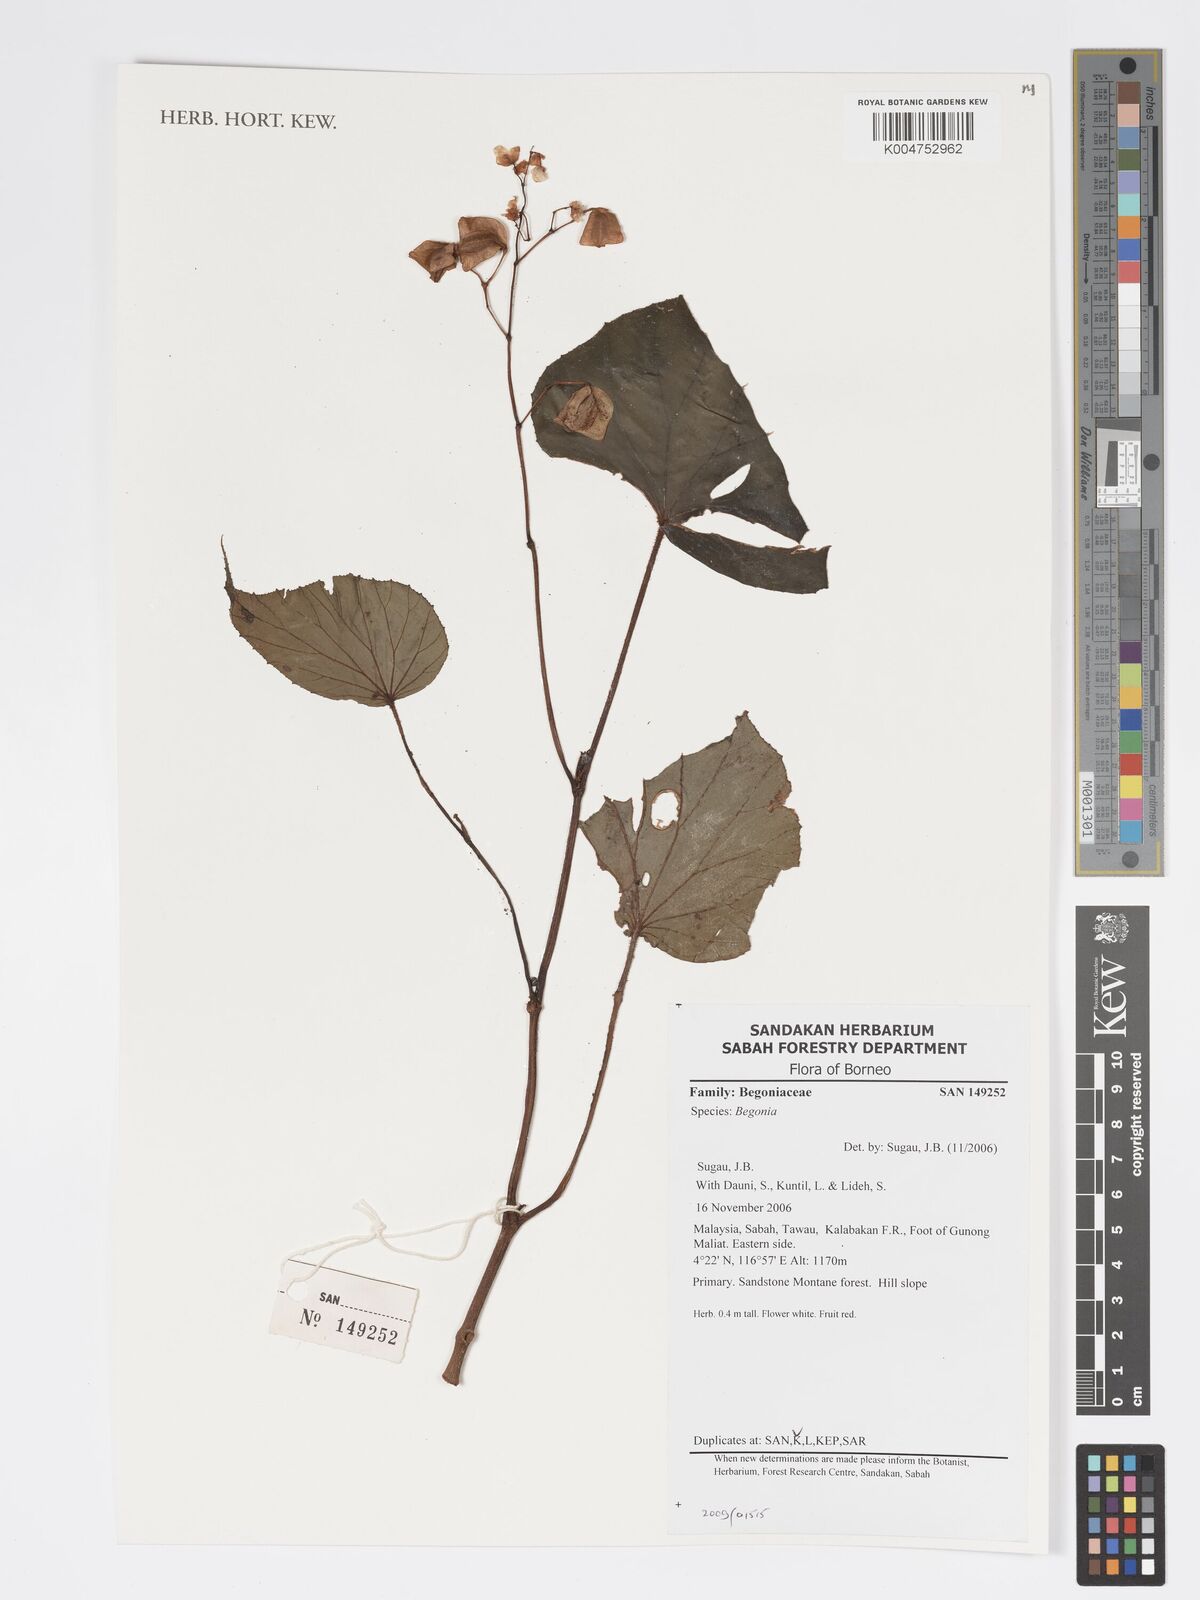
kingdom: Plantae
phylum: Tracheophyta
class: Magnoliopsida
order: Cucurbitales
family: Begoniaceae
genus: Begonia
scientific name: Begonia
